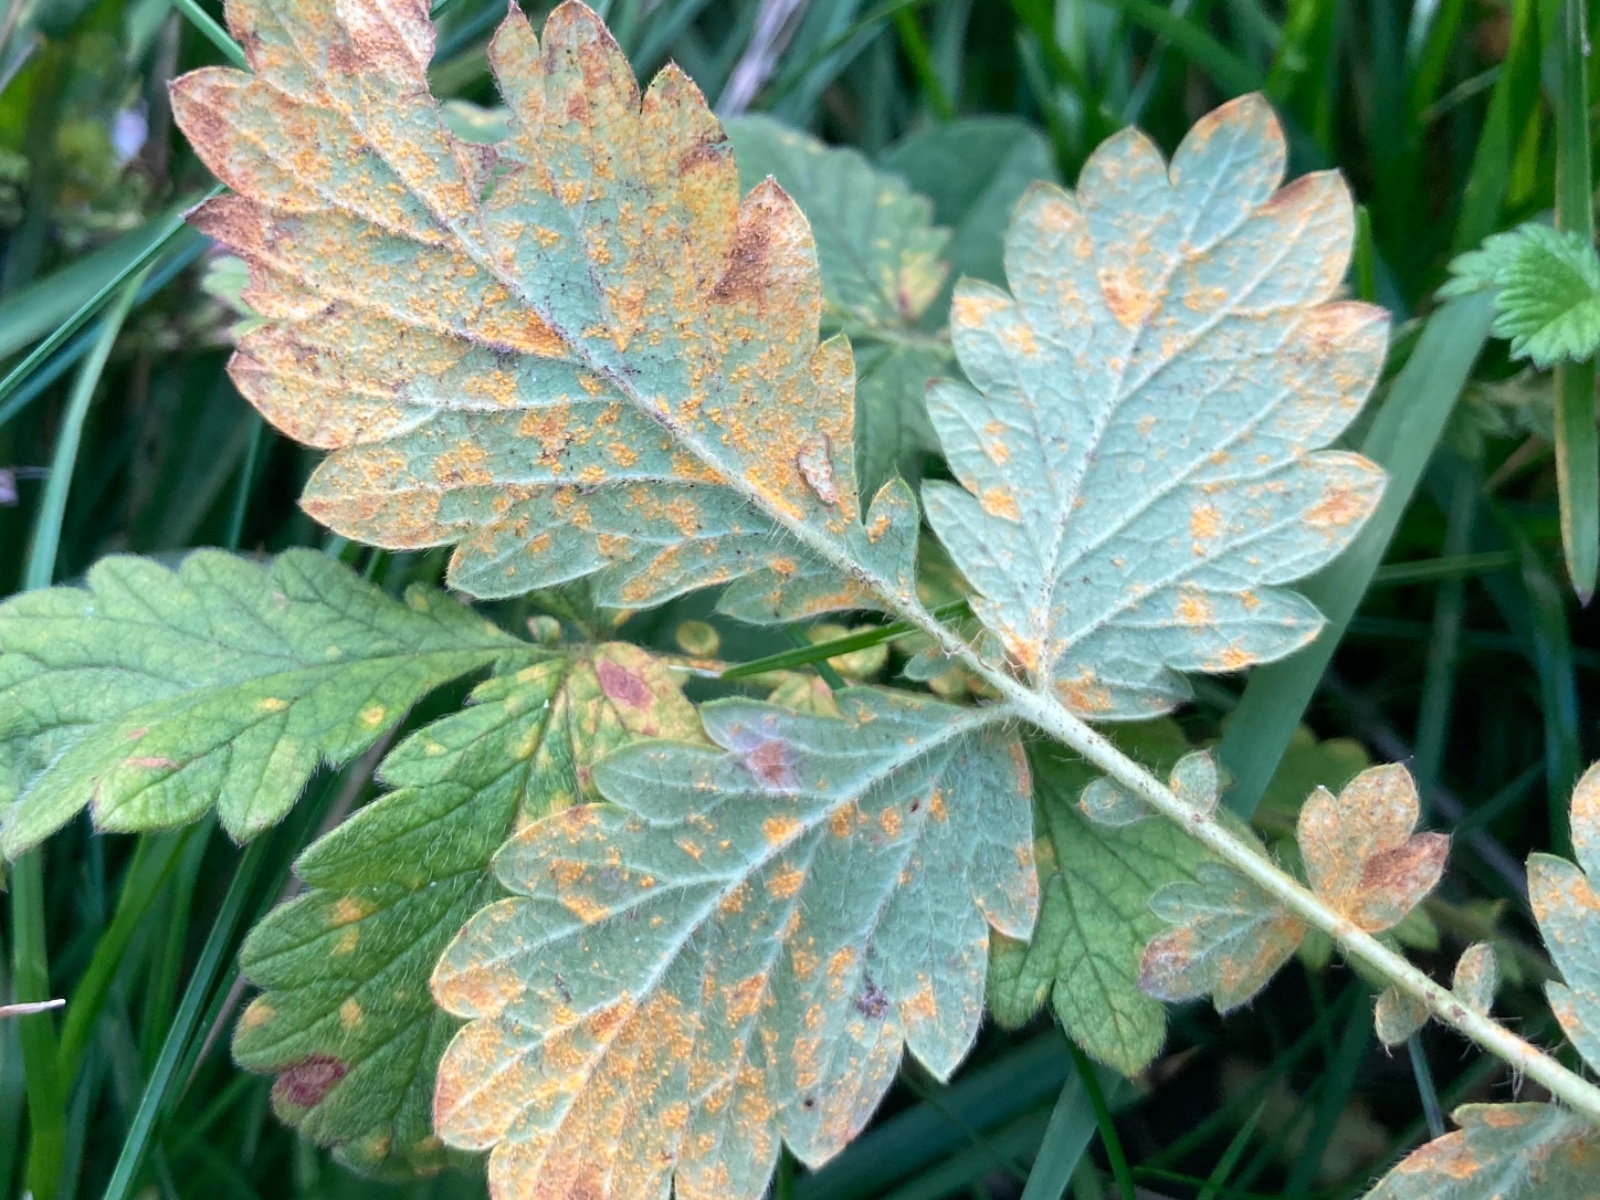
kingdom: Fungi
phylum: Basidiomycota
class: Pucciniomycetes
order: Pucciniales
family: Cronartiaceae
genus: Quasipucciniastrum
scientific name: Quasipucciniastrum ochraceum
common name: agermåne-nålerust
